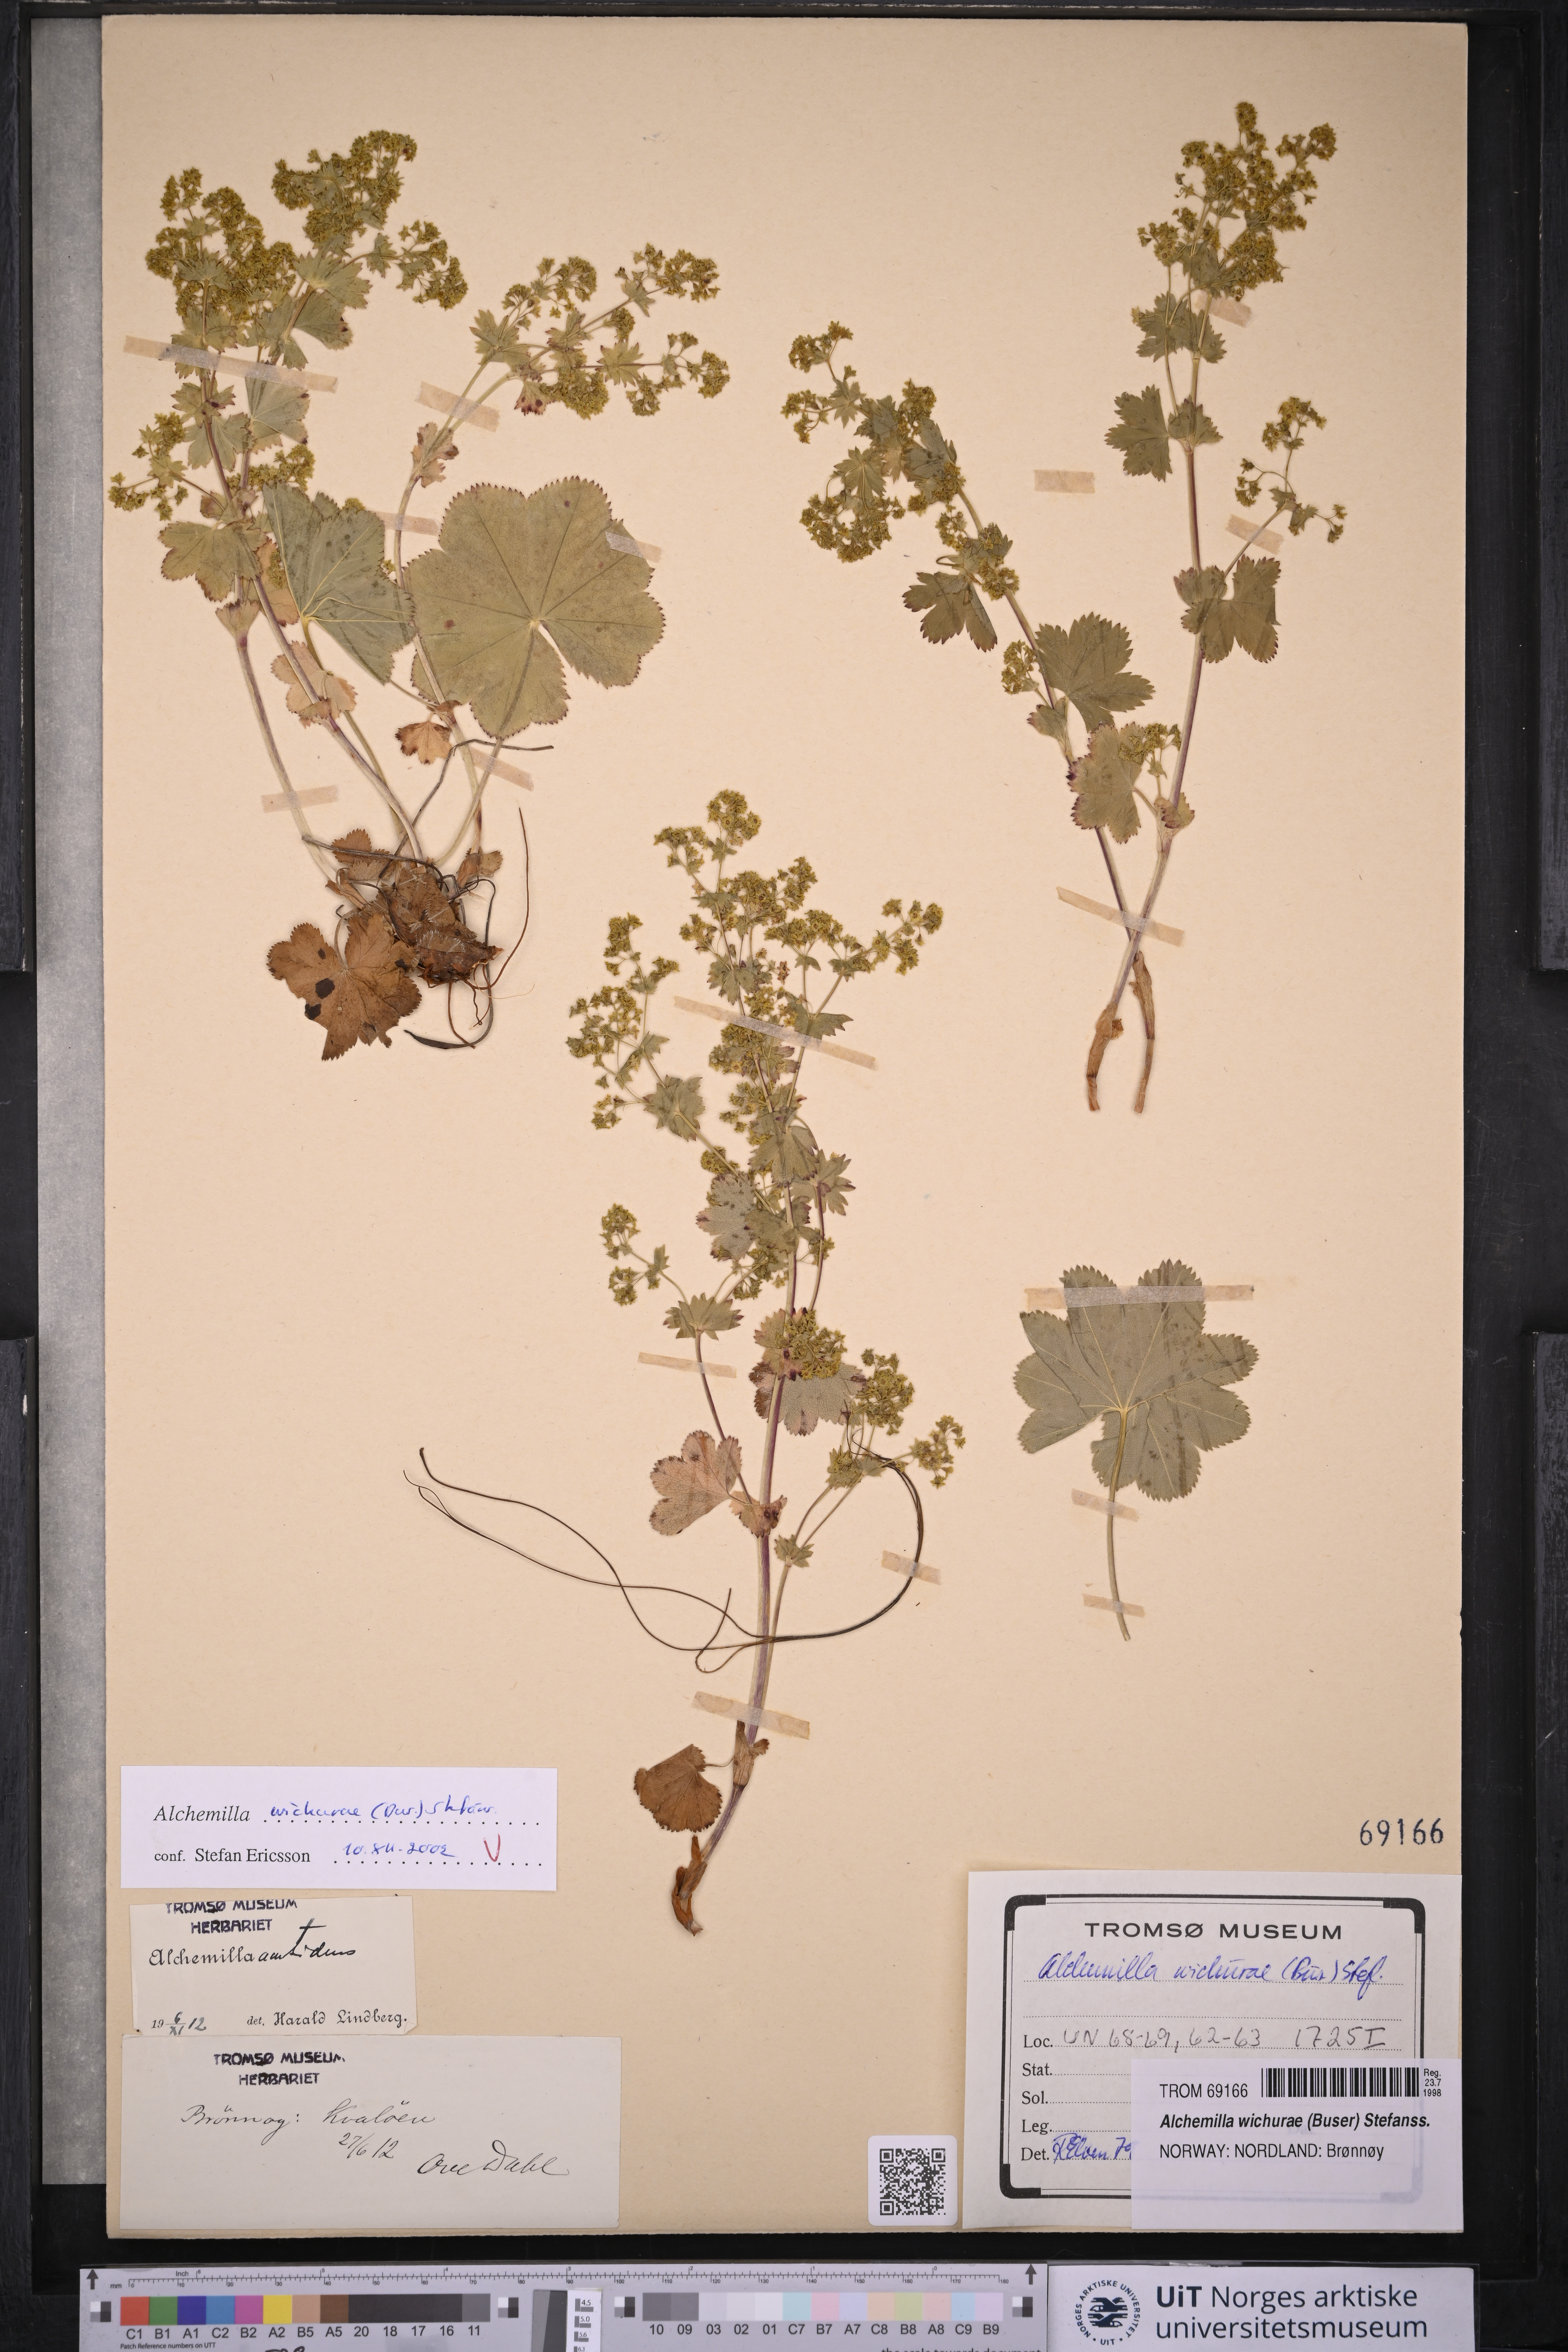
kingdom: Plantae
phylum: Tracheophyta
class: Magnoliopsida
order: Rosales
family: Rosaceae
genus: Alchemilla
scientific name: Alchemilla wichurae
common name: Rock lady's mantle
